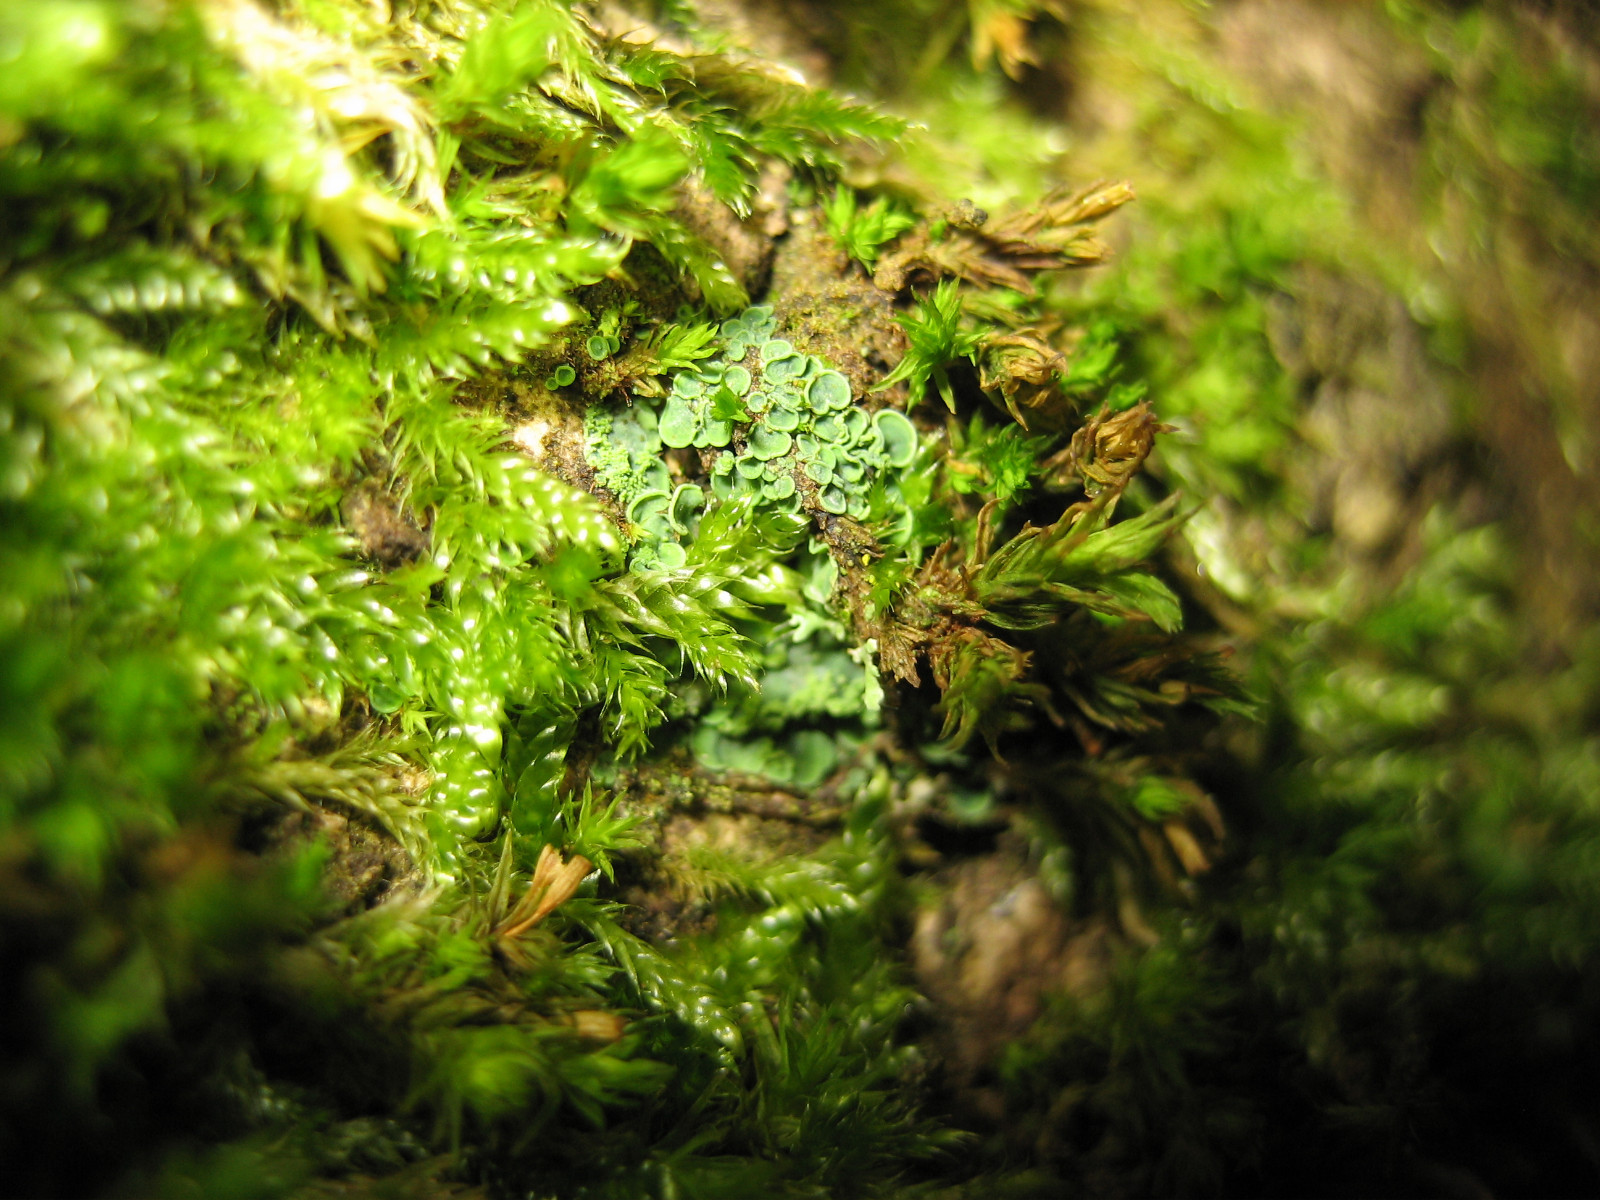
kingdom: Fungi
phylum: Ascomycota
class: Eurotiomycetes
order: Verrucariales
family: Verrucariaceae
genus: Normandina
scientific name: Normandina pulchella
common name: smuk konfettilav
